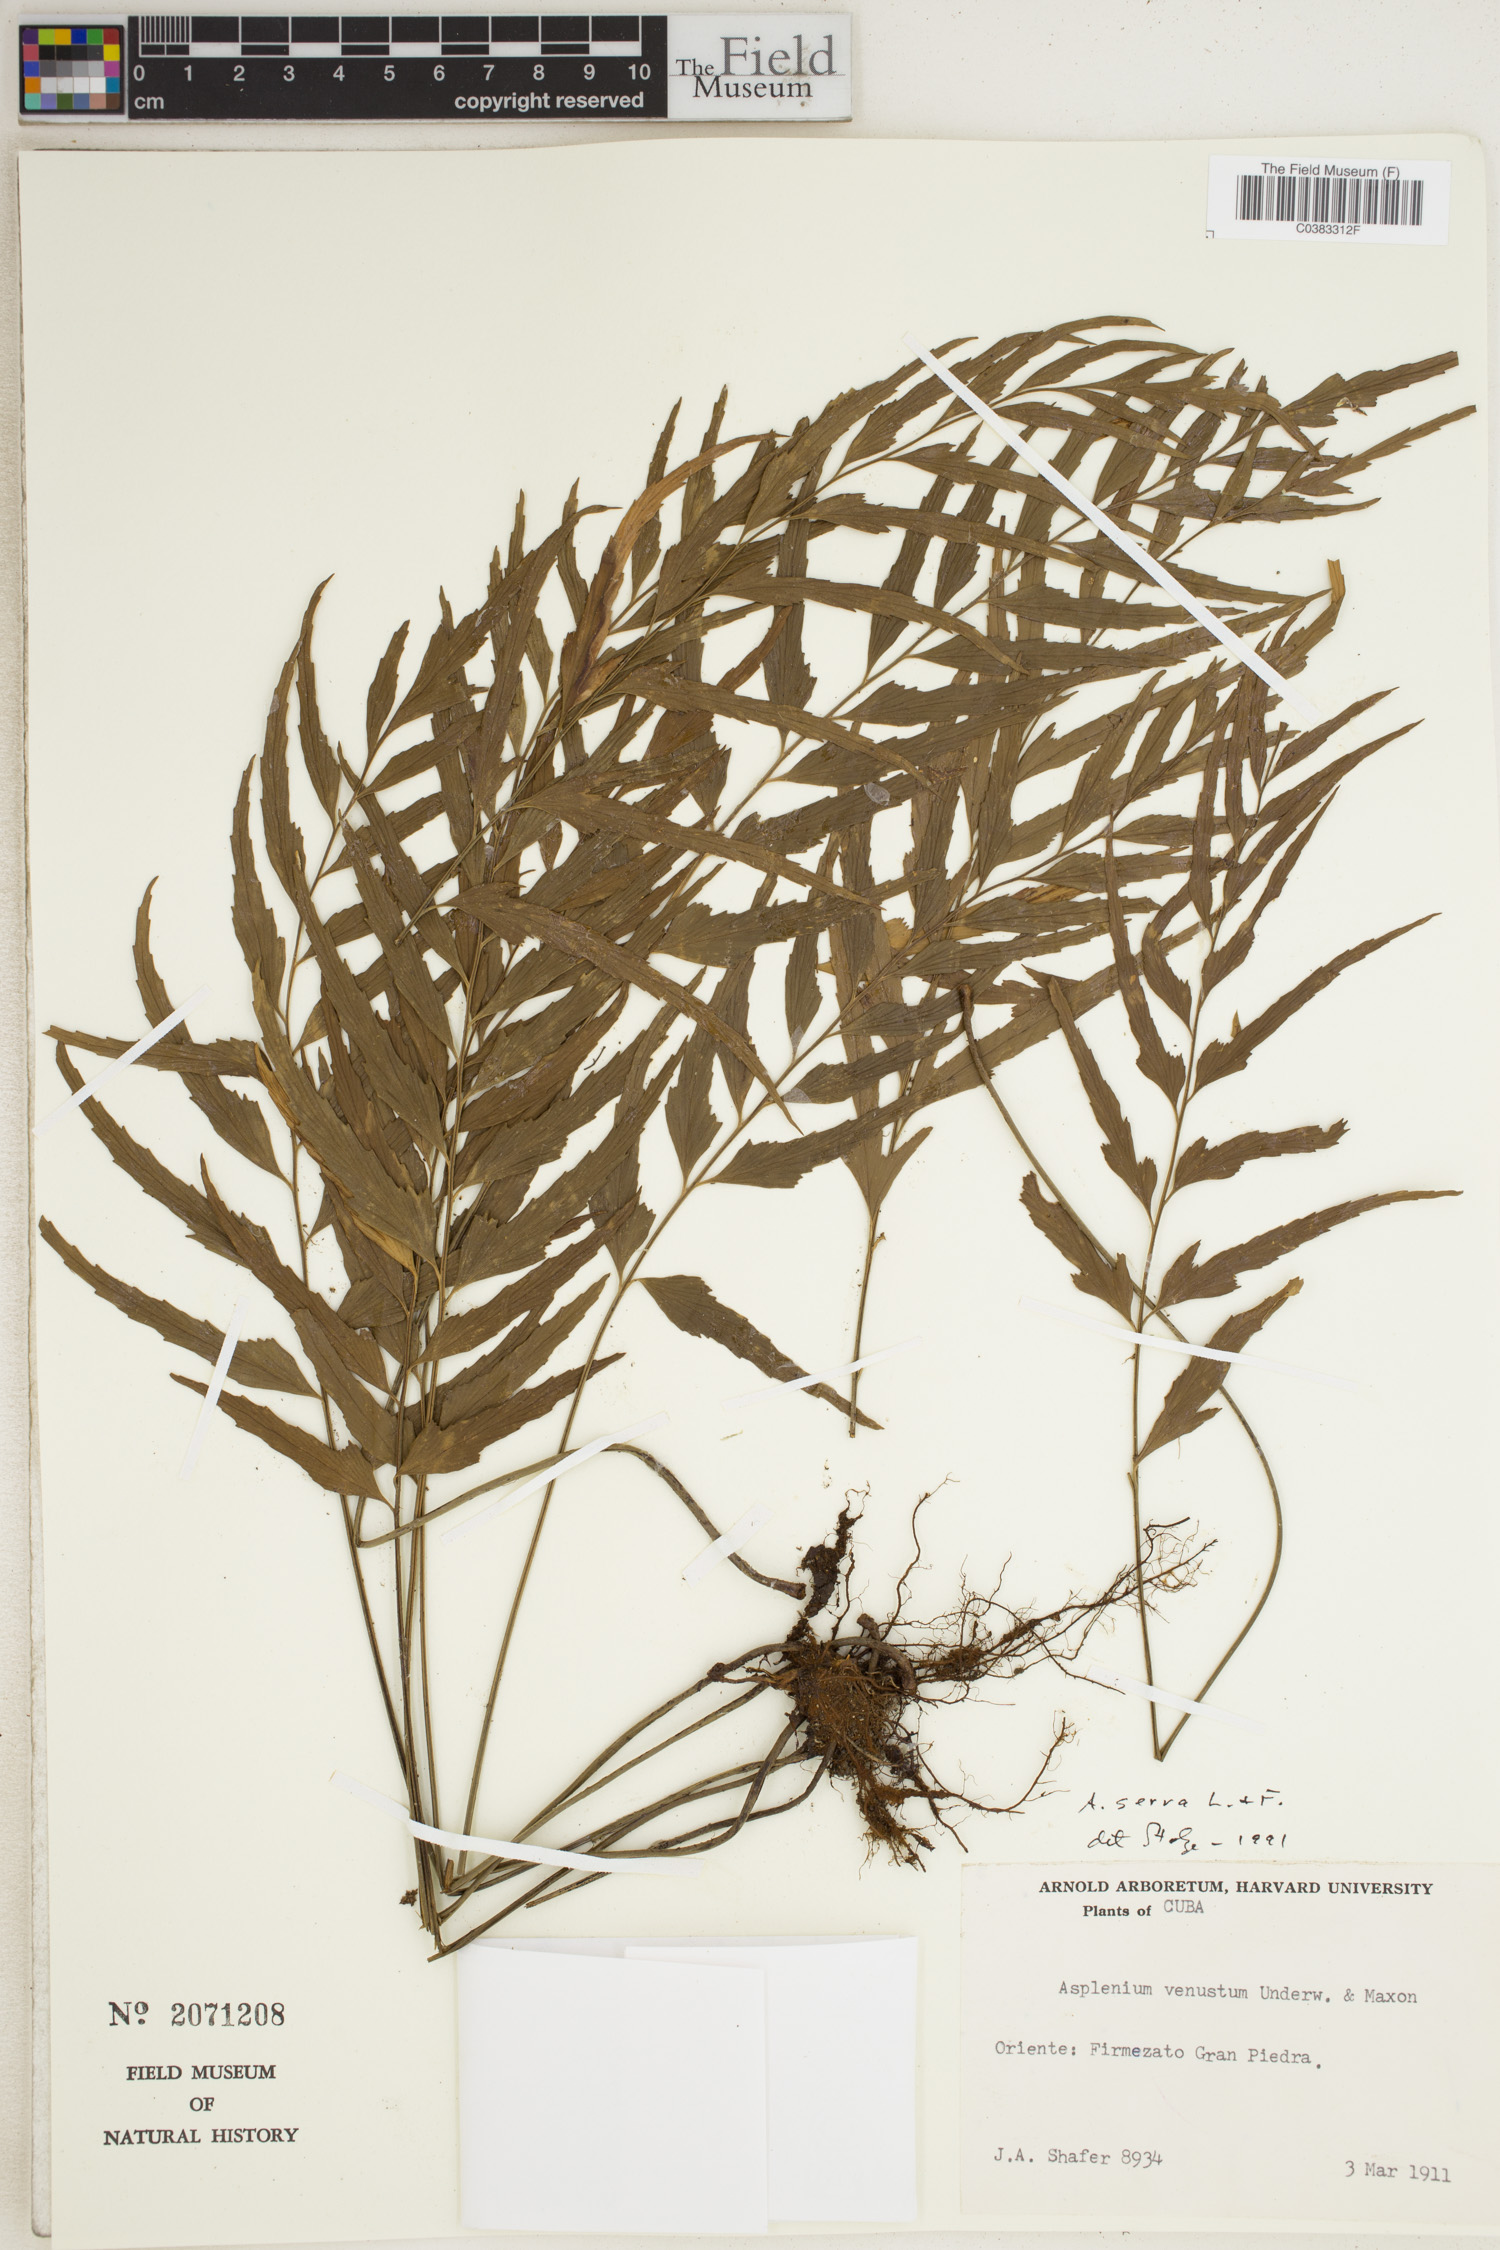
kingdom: Plantae
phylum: Tracheophyta
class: Polypodiopsida
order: Polypodiales
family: Aspleniaceae
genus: Asplenium
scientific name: Asplenium serra
